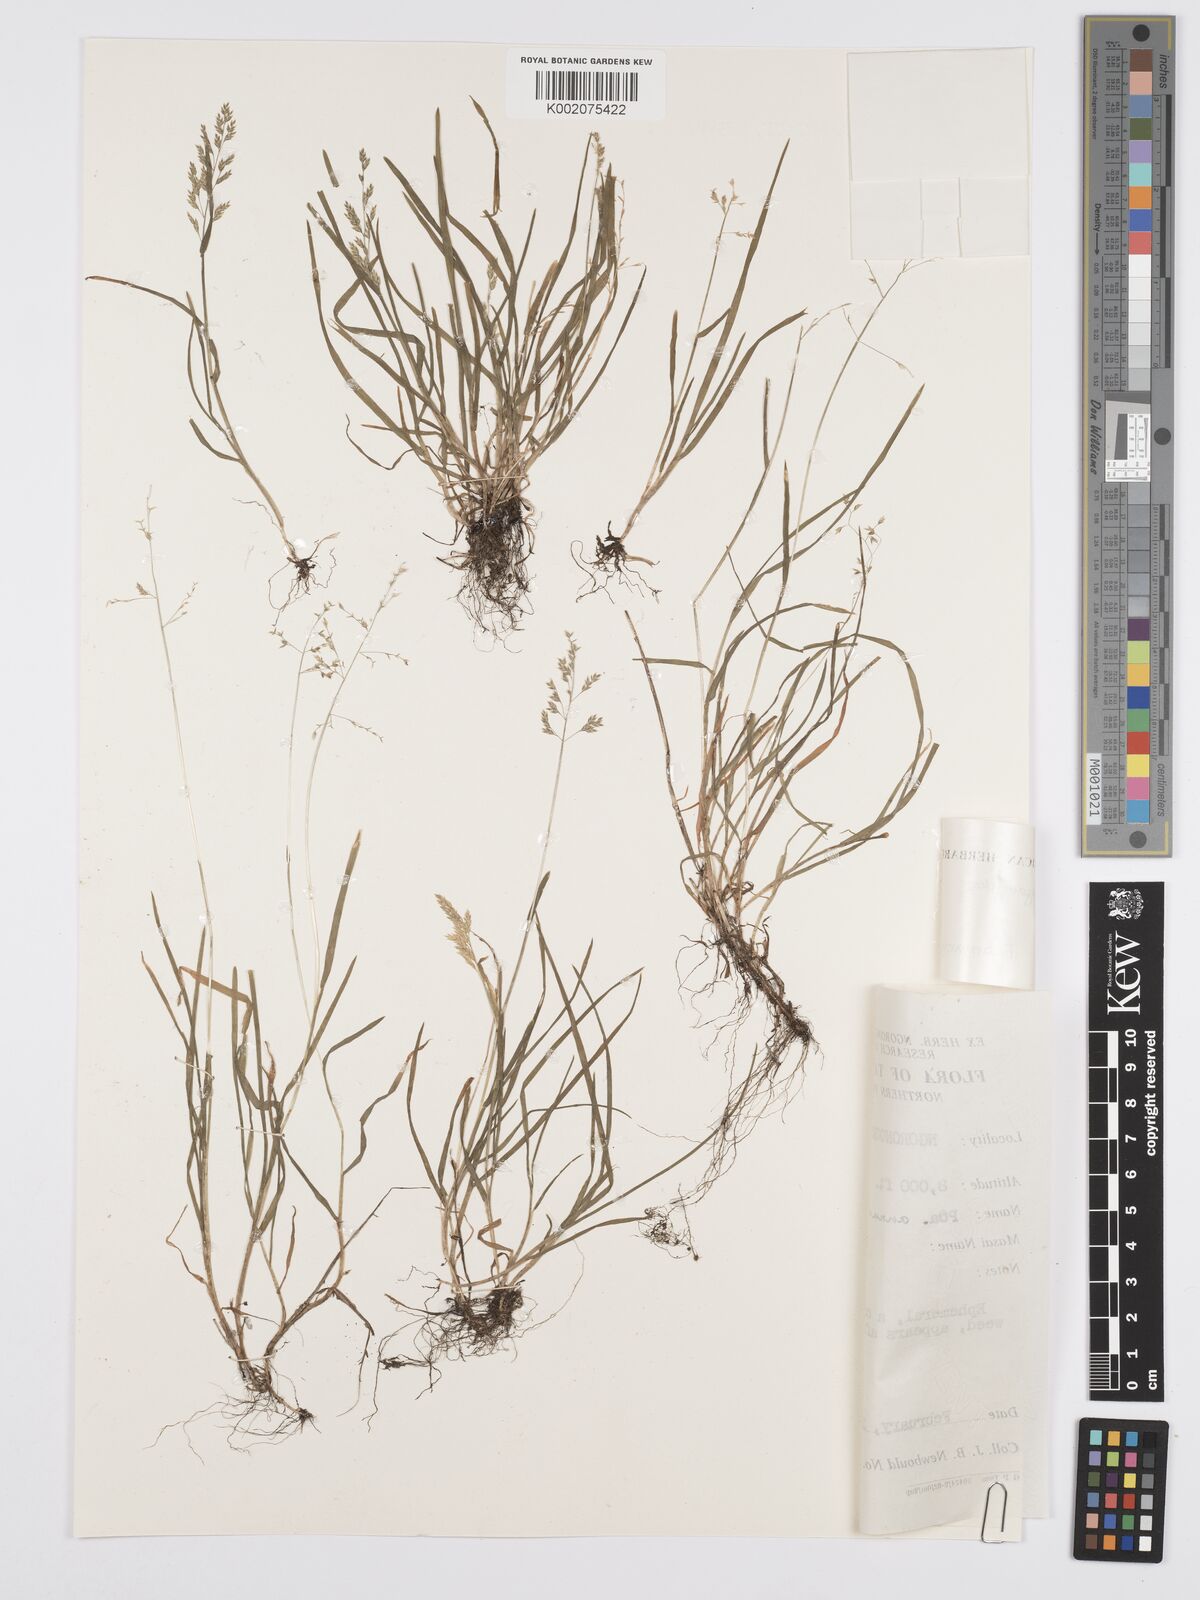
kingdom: Plantae
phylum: Tracheophyta
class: Liliopsida
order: Poales
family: Poaceae
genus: Poa
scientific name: Poa annua
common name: Annual bluegrass
